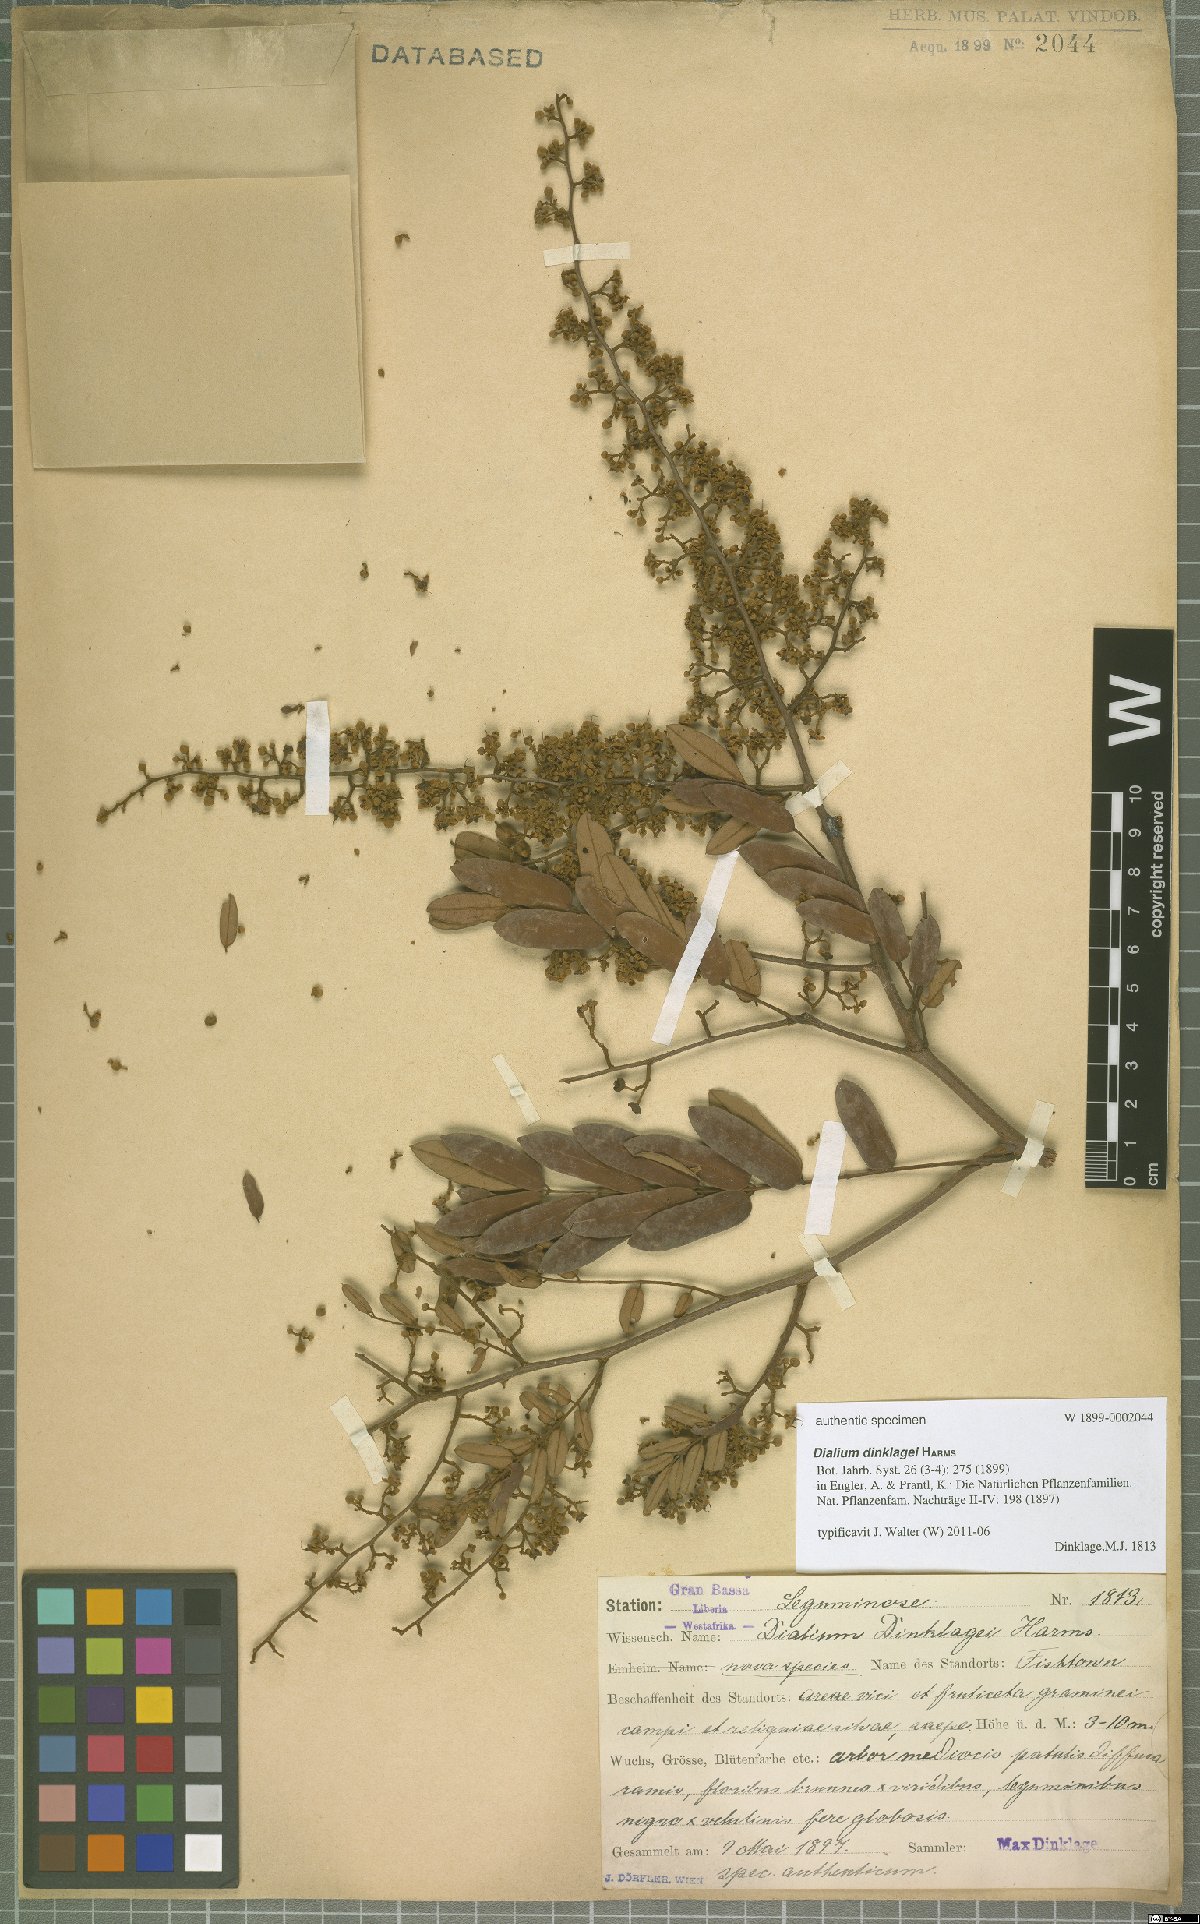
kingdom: Plantae
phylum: Tracheophyta
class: Magnoliopsida
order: Fabales
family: Fabaceae
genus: Dialium
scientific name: Dialium dinklagei
